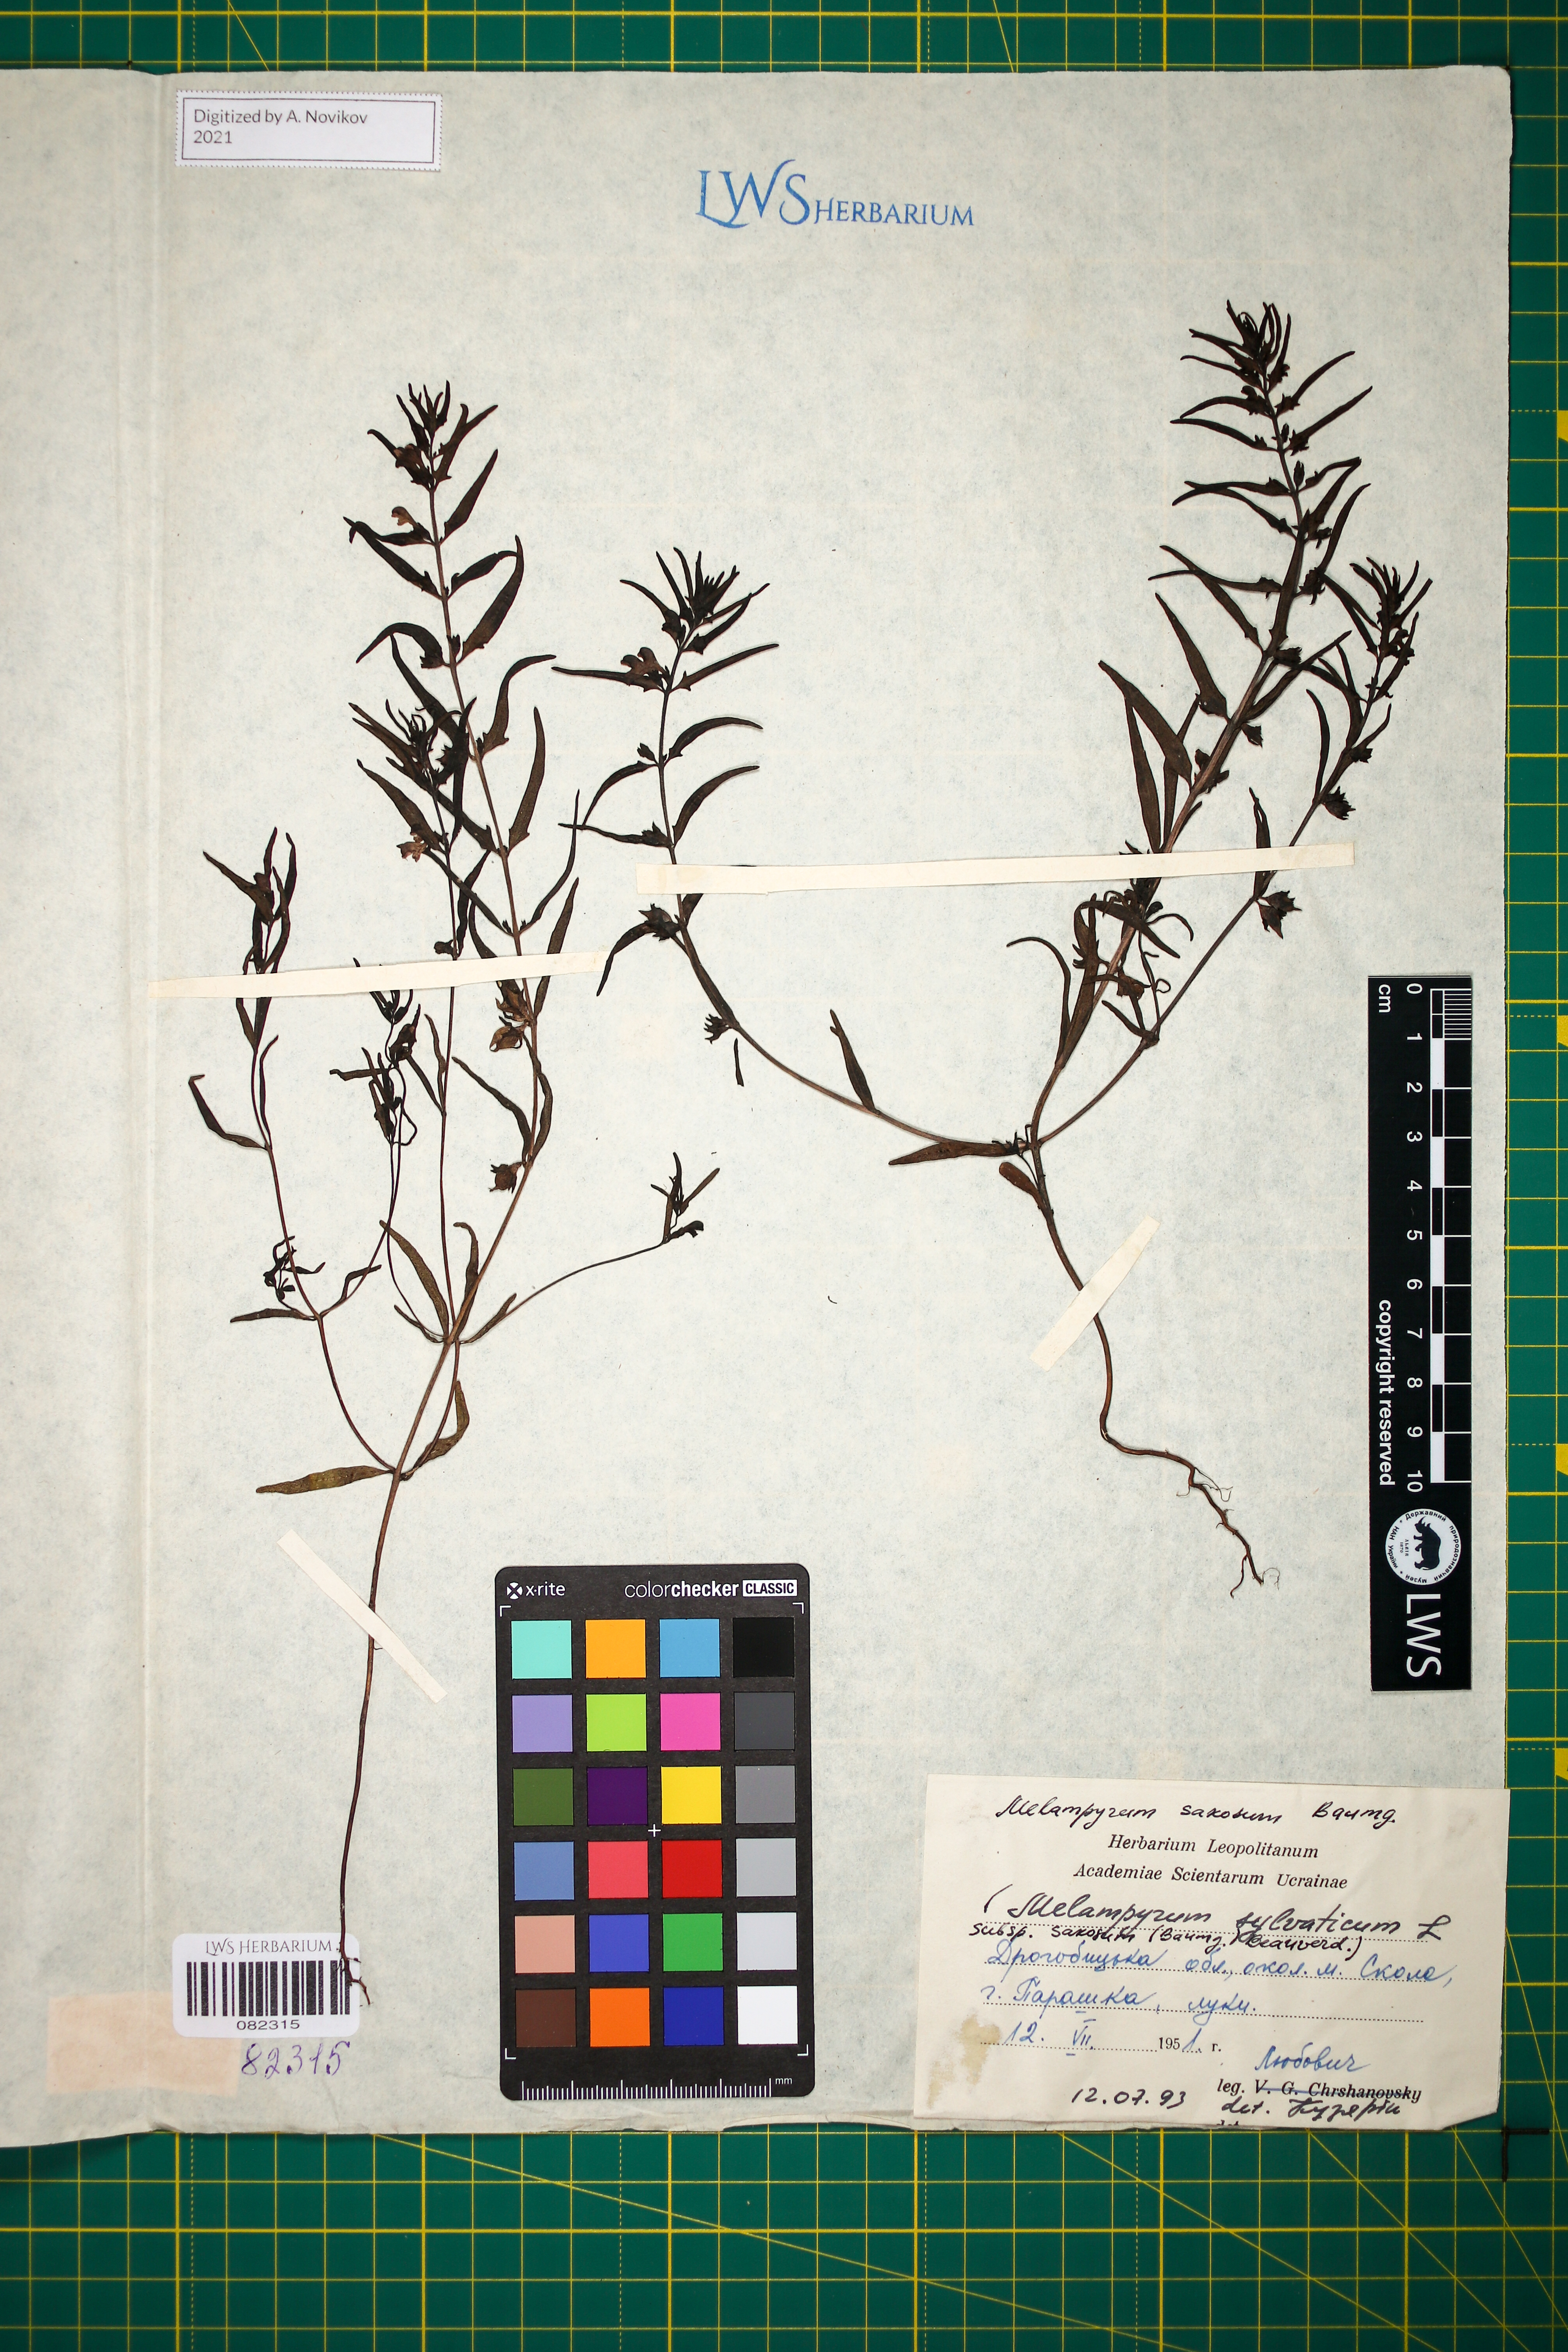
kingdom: Plantae
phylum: Tracheophyta
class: Magnoliopsida
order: Lamiales
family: Orobanchaceae
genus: Melampyrum
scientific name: Melampyrum saxosum
